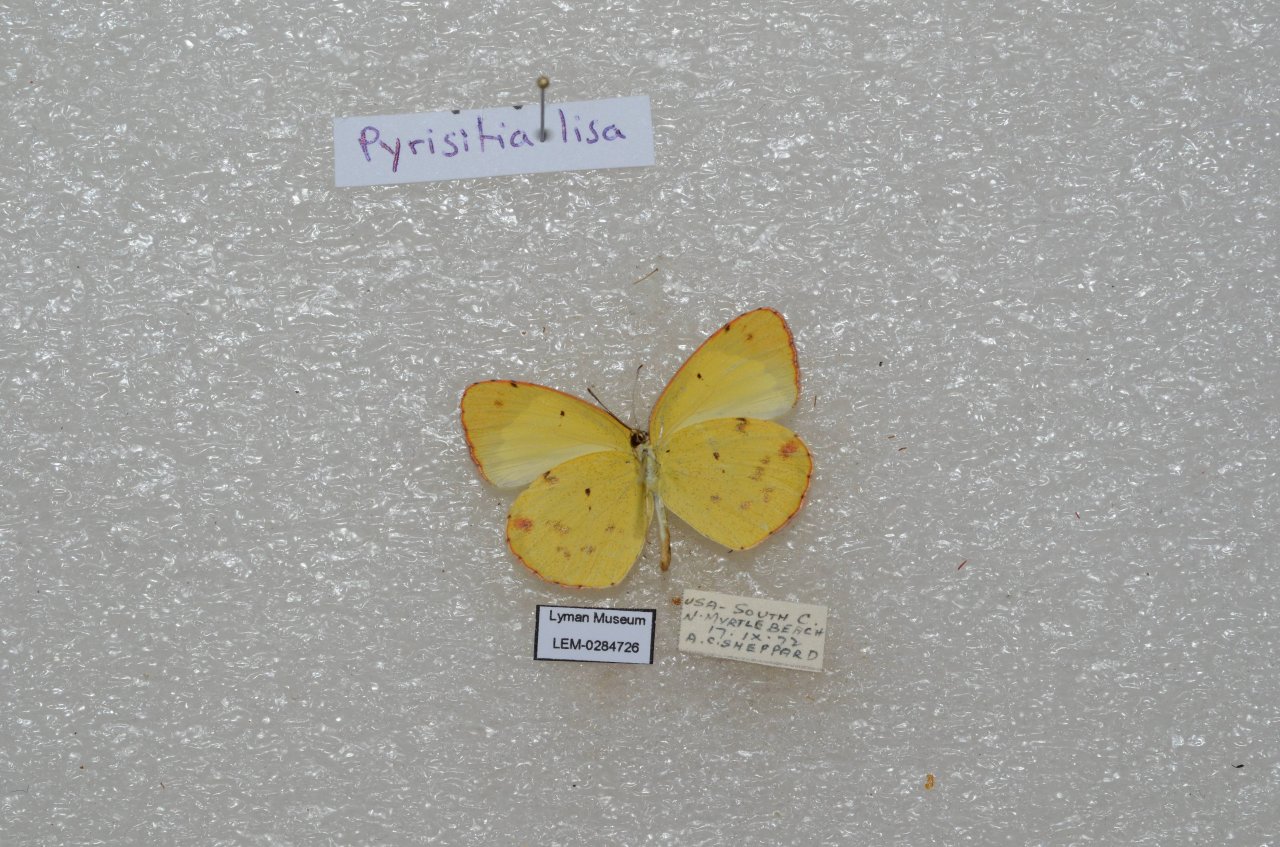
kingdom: Animalia
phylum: Arthropoda
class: Insecta
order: Lepidoptera
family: Pieridae
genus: Pyrisitia
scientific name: Pyrisitia lisa
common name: Little Yellow
